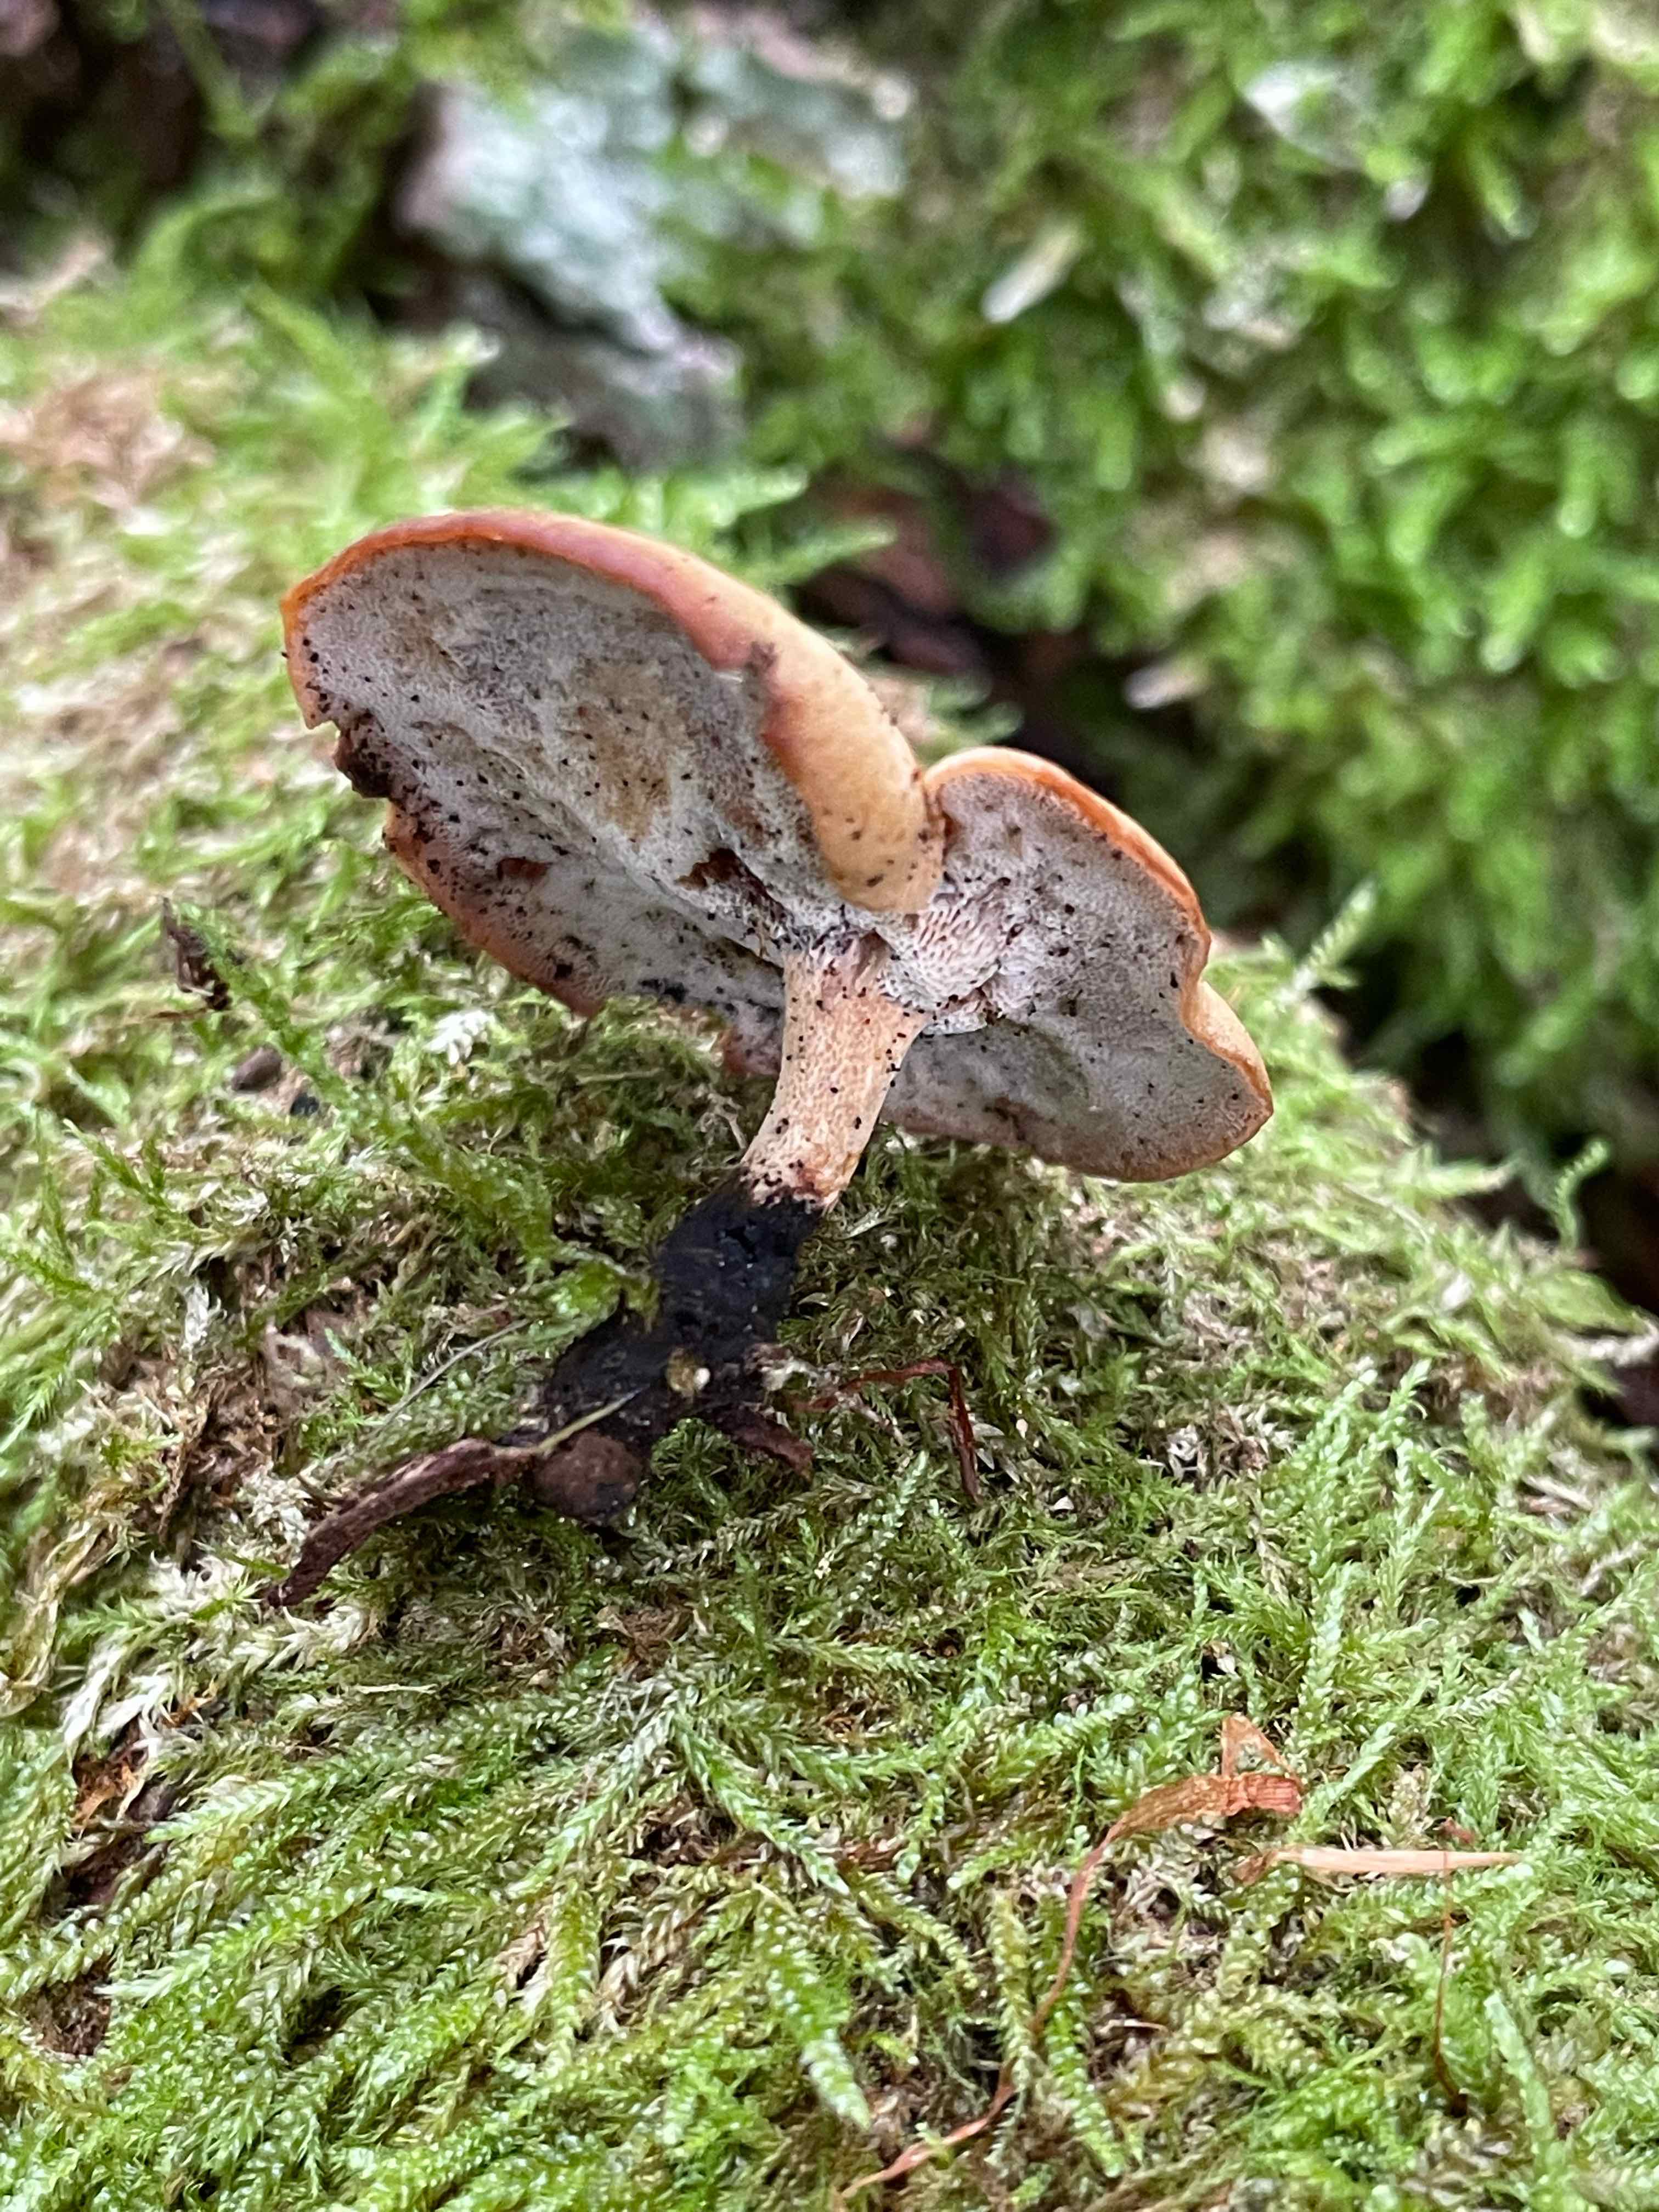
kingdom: Fungi
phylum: Basidiomycota
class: Agaricomycetes
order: Polyporales
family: Polyporaceae
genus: Cerioporus
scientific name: Cerioporus varius
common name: foranderlig stilkporesvamp
